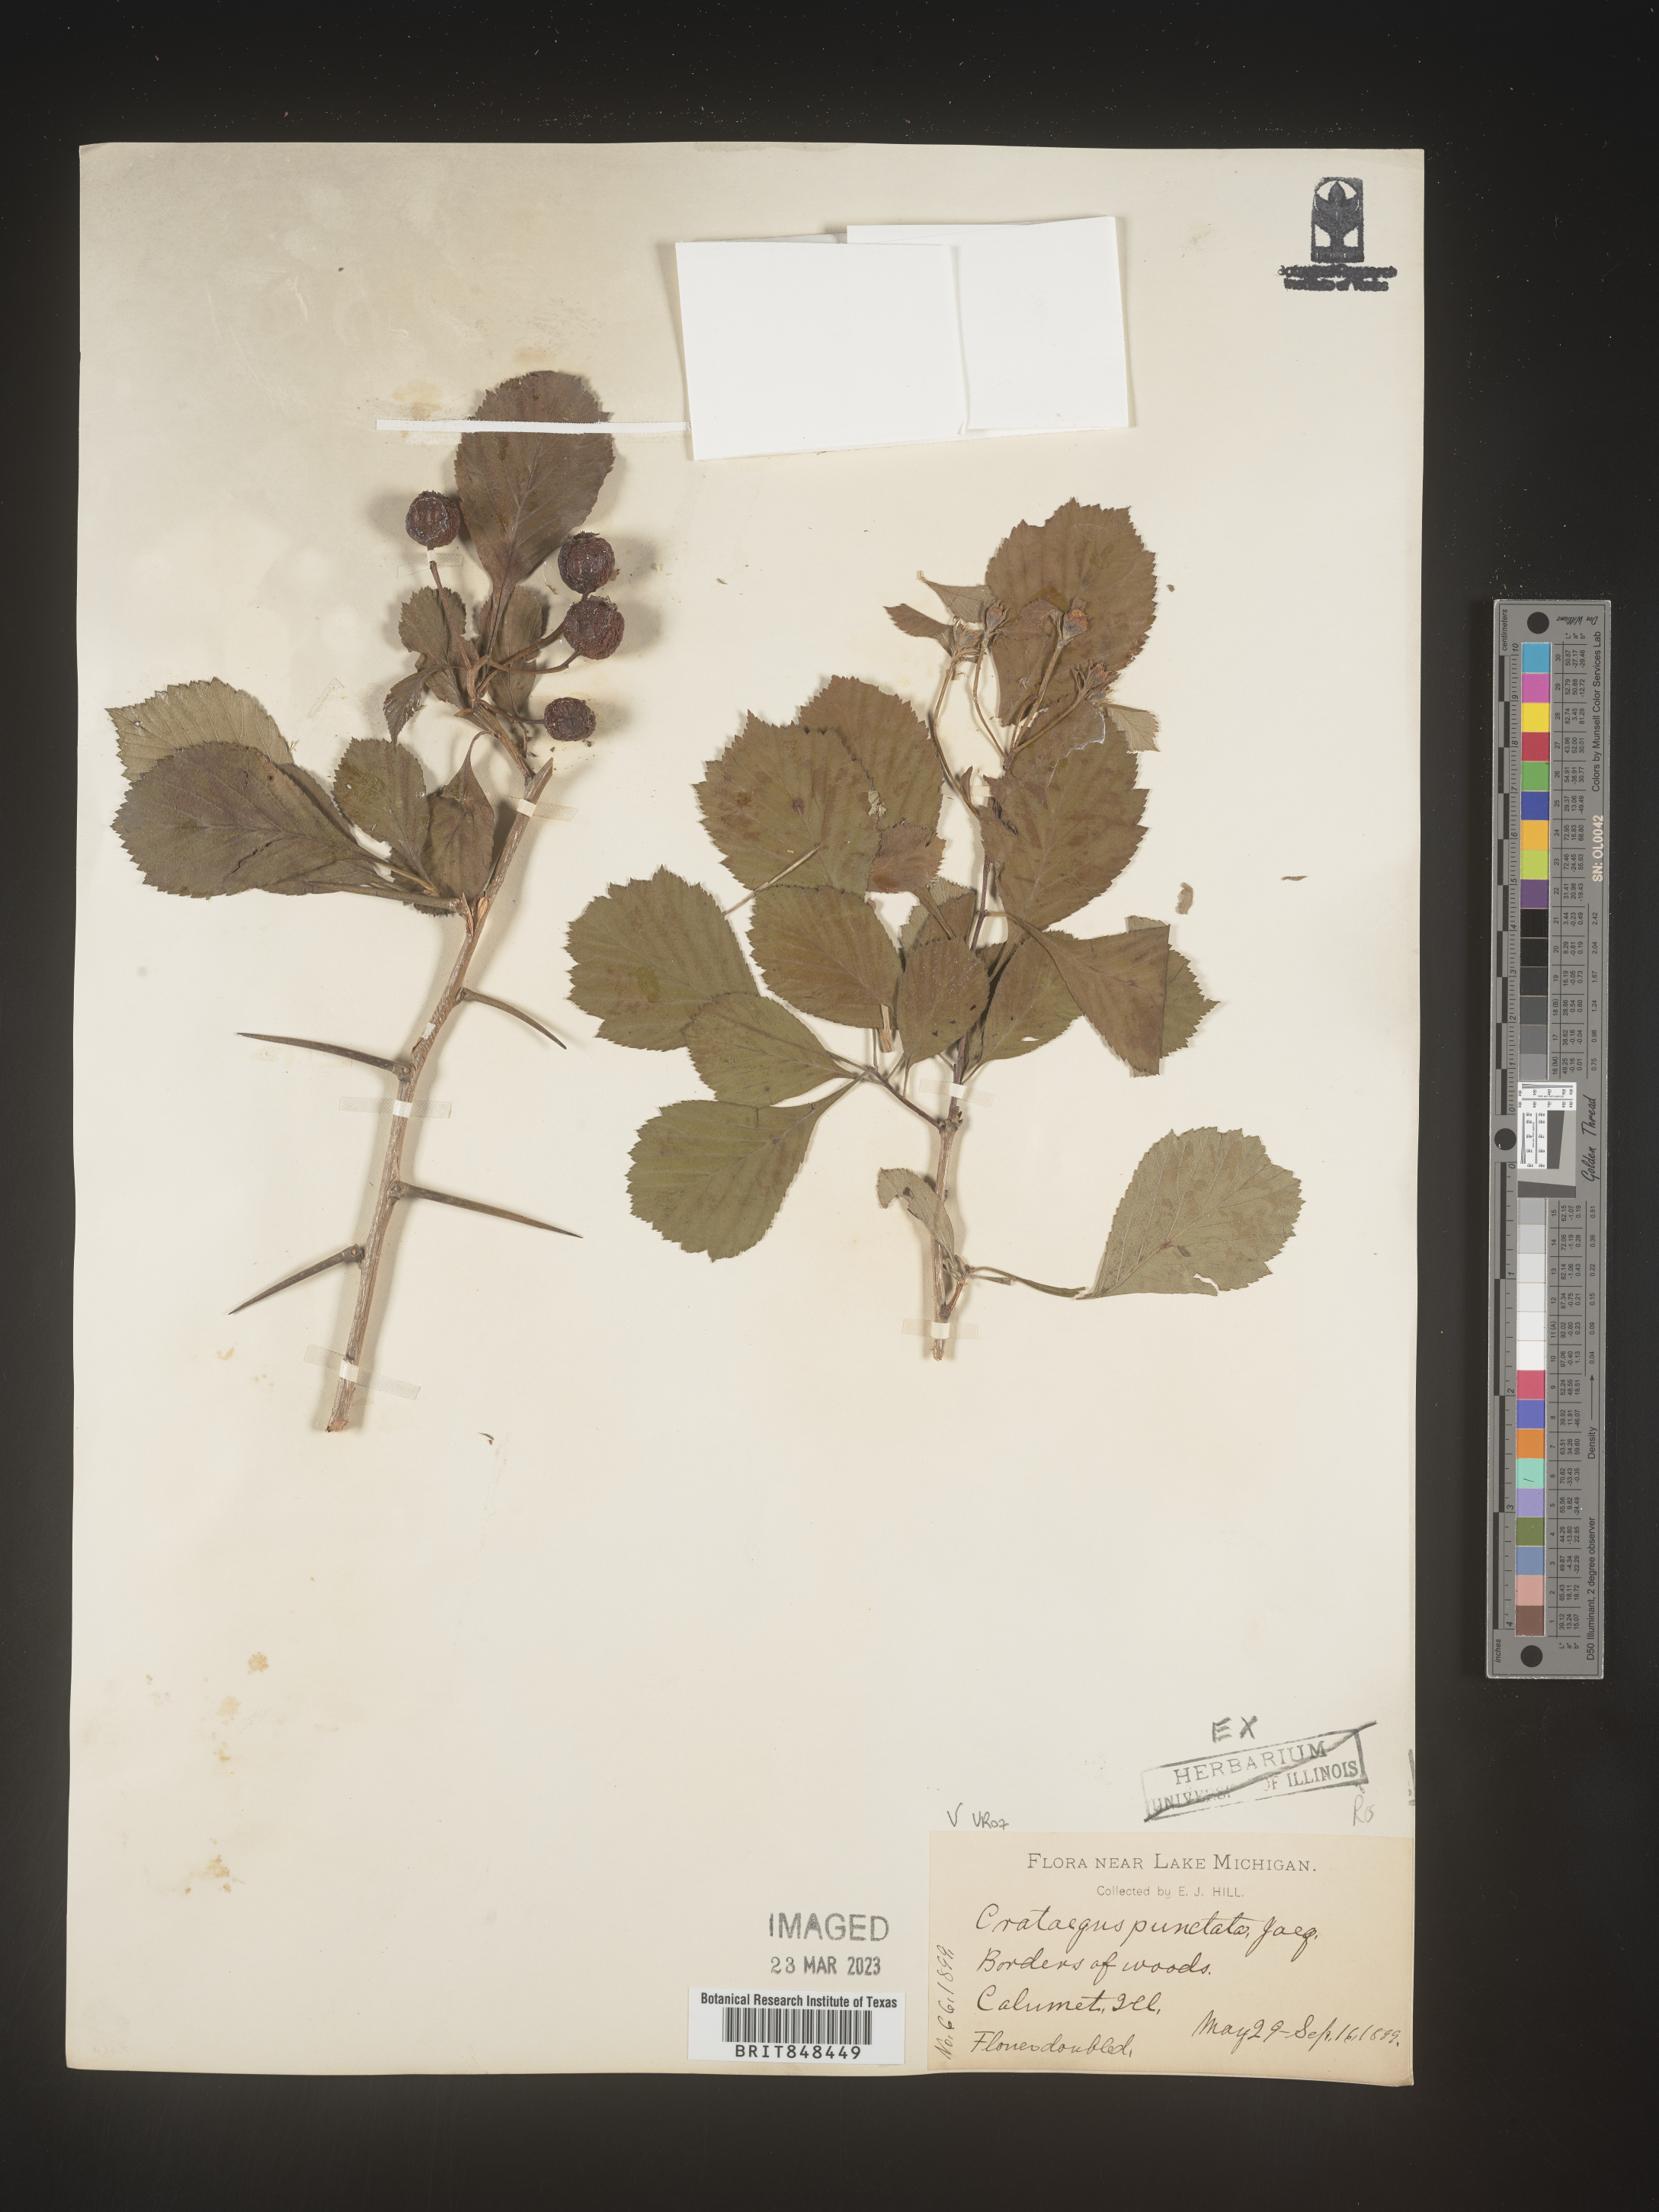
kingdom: Plantae
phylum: Tracheophyta
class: Magnoliopsida
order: Rosales
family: Rosaceae
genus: Crataegus
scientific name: Crataegus punctata
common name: Dotted hawthorn
